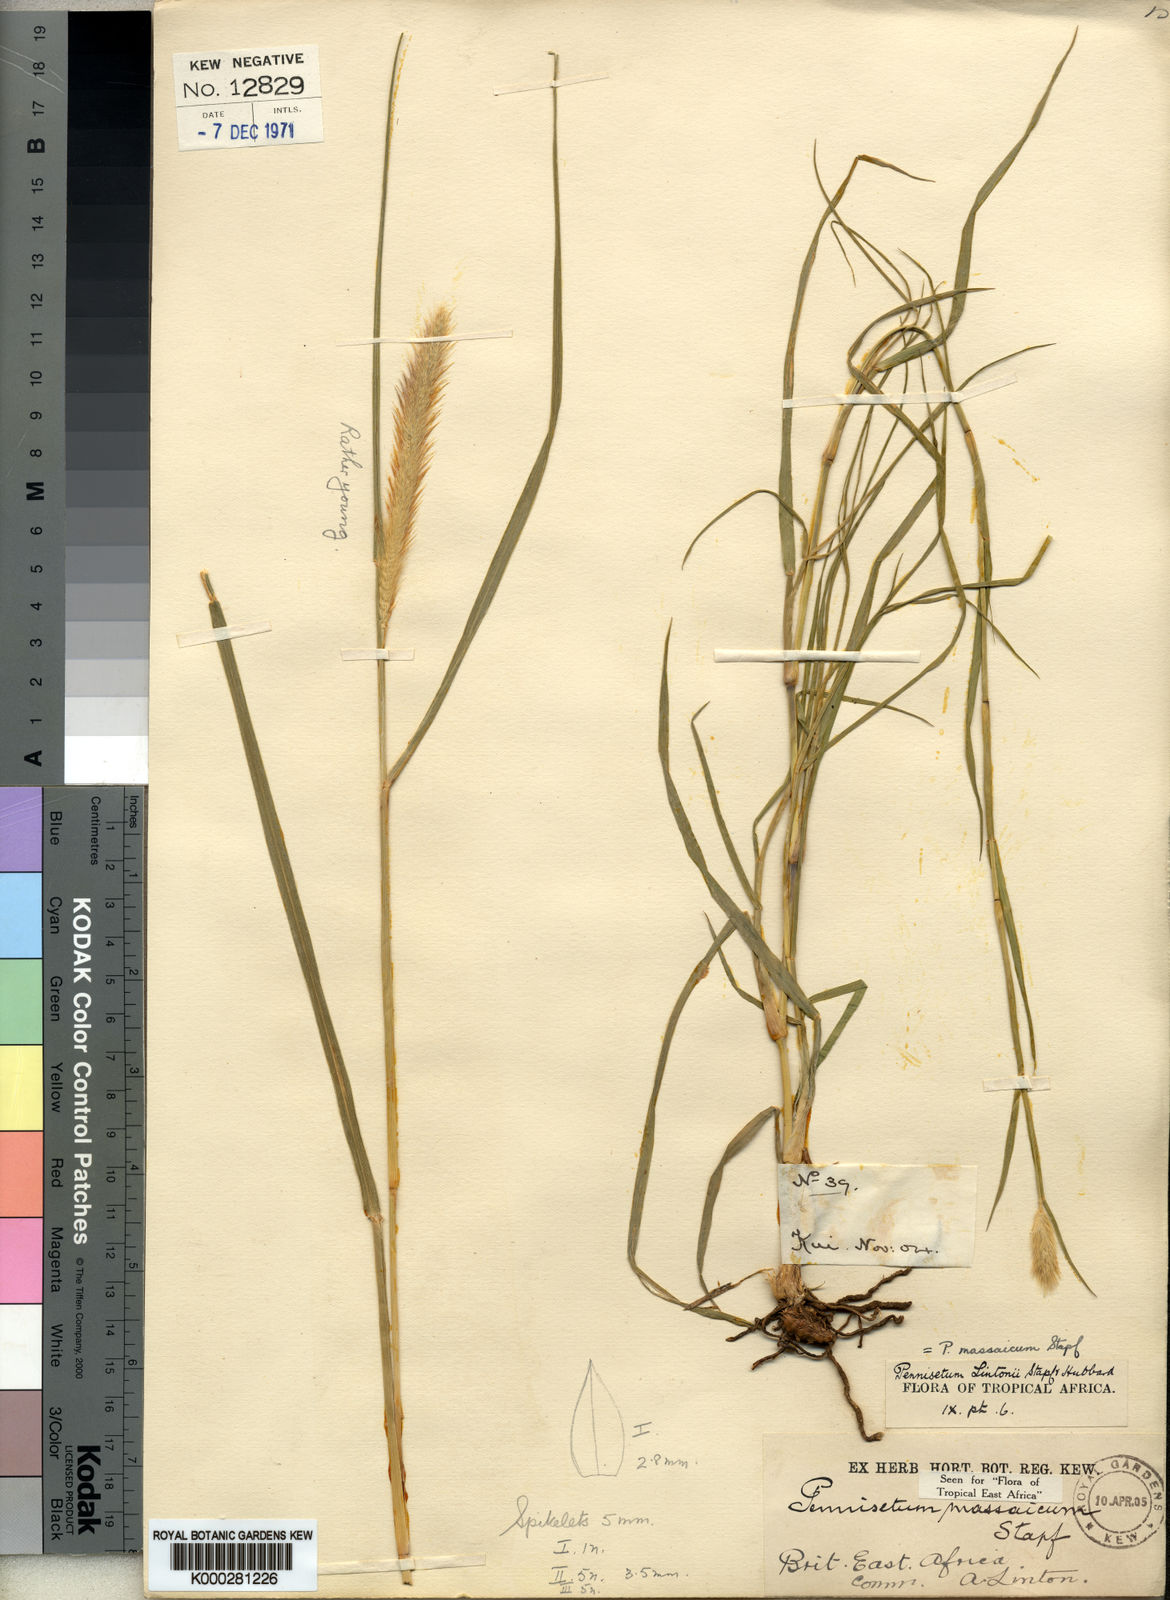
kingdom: Plantae
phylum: Tracheophyta
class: Liliopsida
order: Poales
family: Poaceae
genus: Cenchrus
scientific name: Cenchrus massaicus
